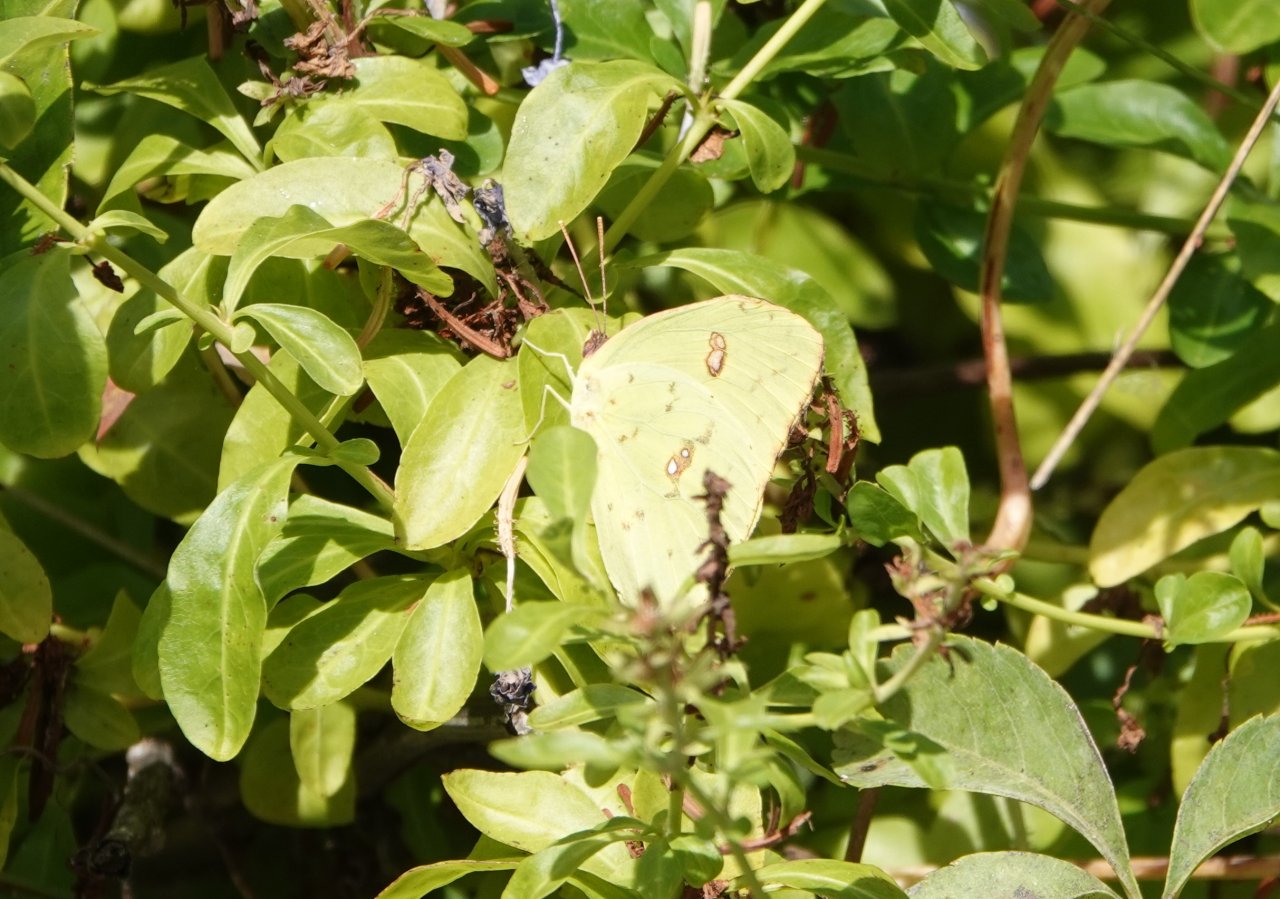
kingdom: Animalia
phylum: Arthropoda
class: Insecta
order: Lepidoptera
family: Pieridae
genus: Phoebis
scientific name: Phoebis sennae
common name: Cloudless Sulphur
